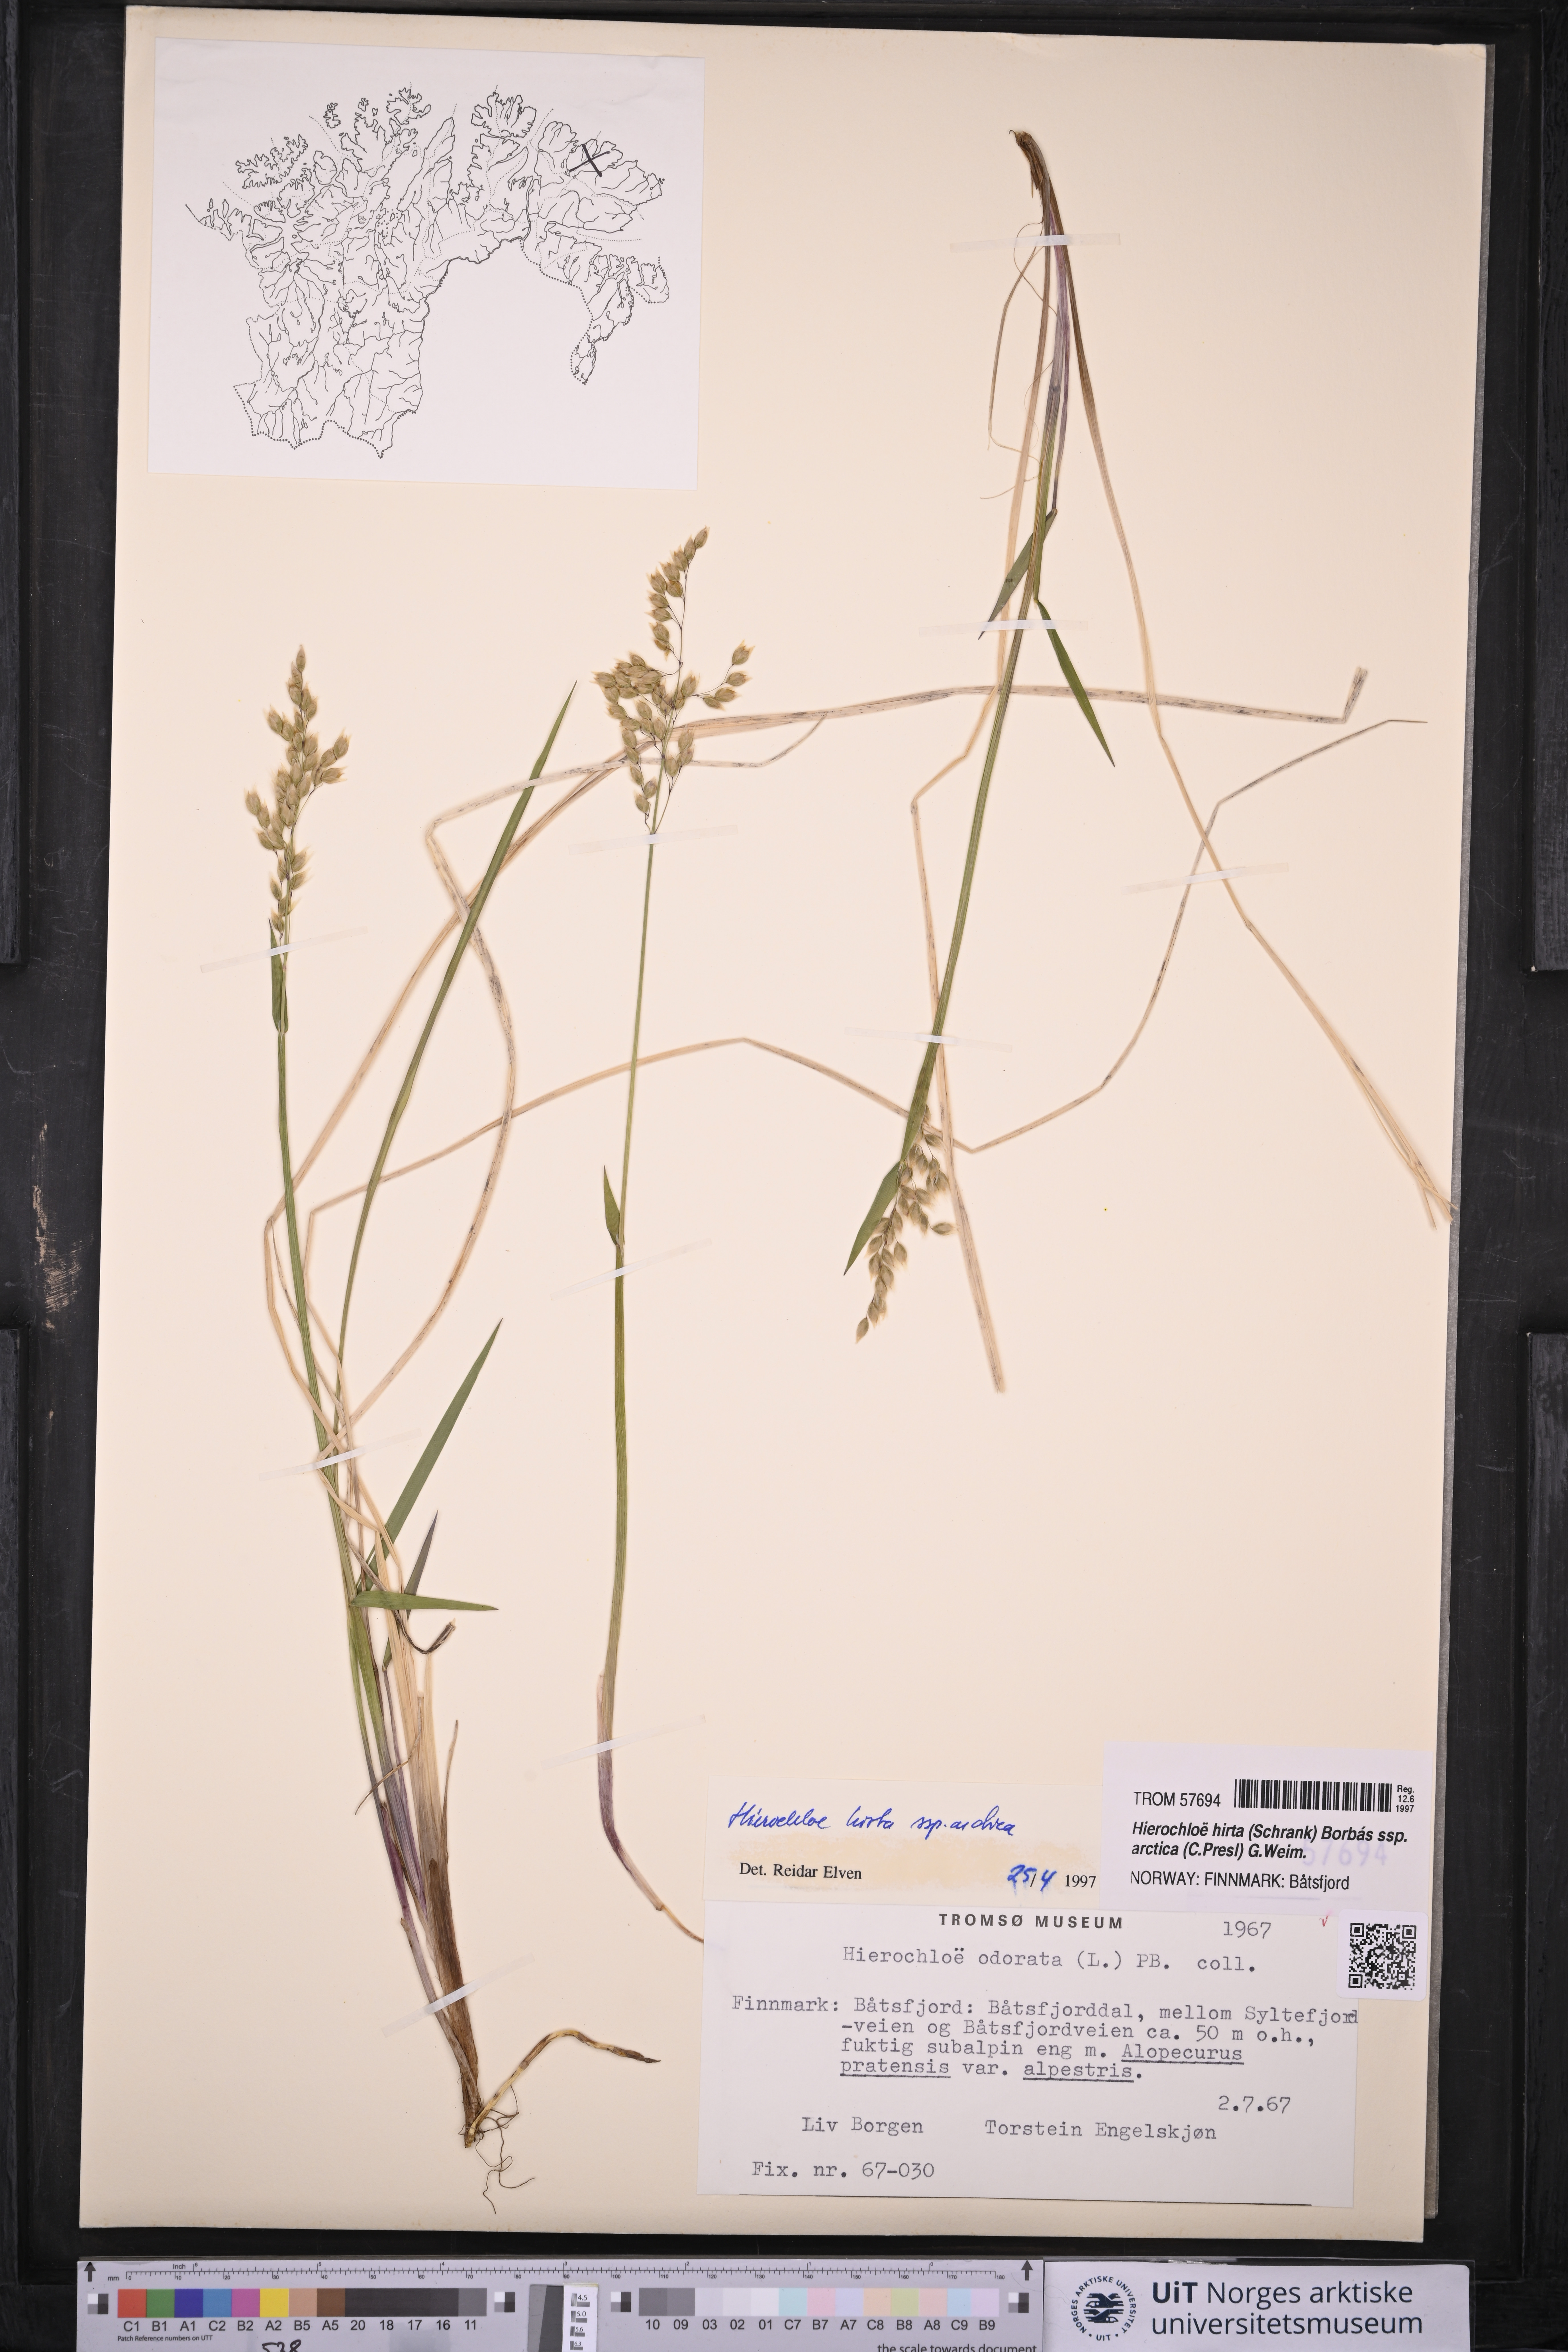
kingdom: Plantae
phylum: Tracheophyta
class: Liliopsida
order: Poales
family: Poaceae
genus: Anthoxanthum
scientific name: Anthoxanthum nitens
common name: Holy grass
